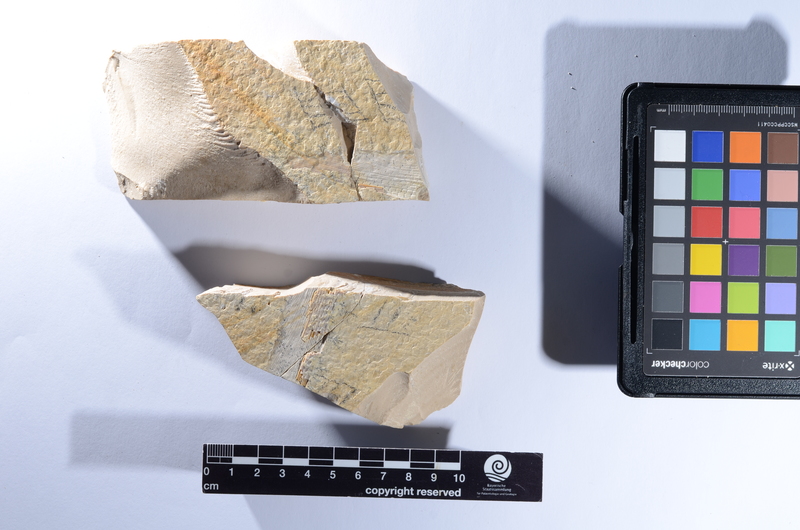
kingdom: Animalia
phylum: Chordata
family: Gyrodontidae
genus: Gyrodus
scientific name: Gyrodus hexagonus
